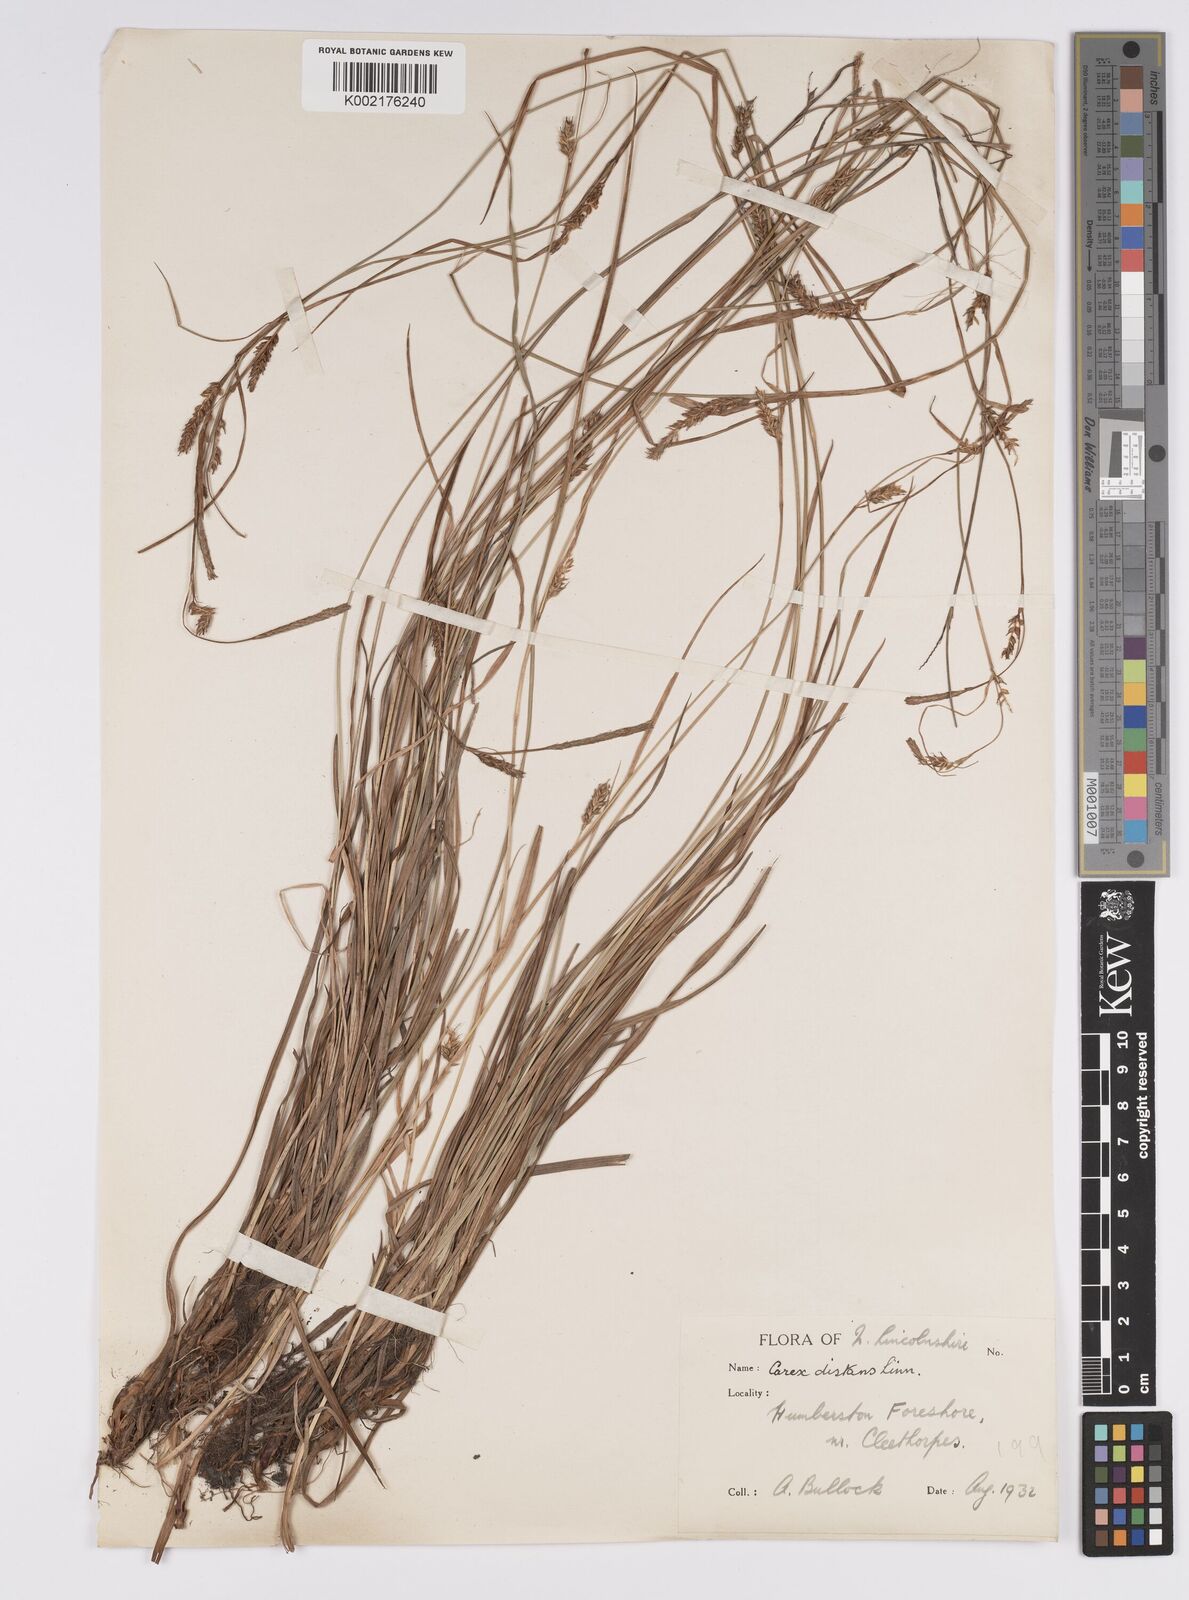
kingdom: Plantae
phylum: Tracheophyta
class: Liliopsida
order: Poales
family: Cyperaceae
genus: Carex
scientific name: Carex distans
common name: Distant sedge
